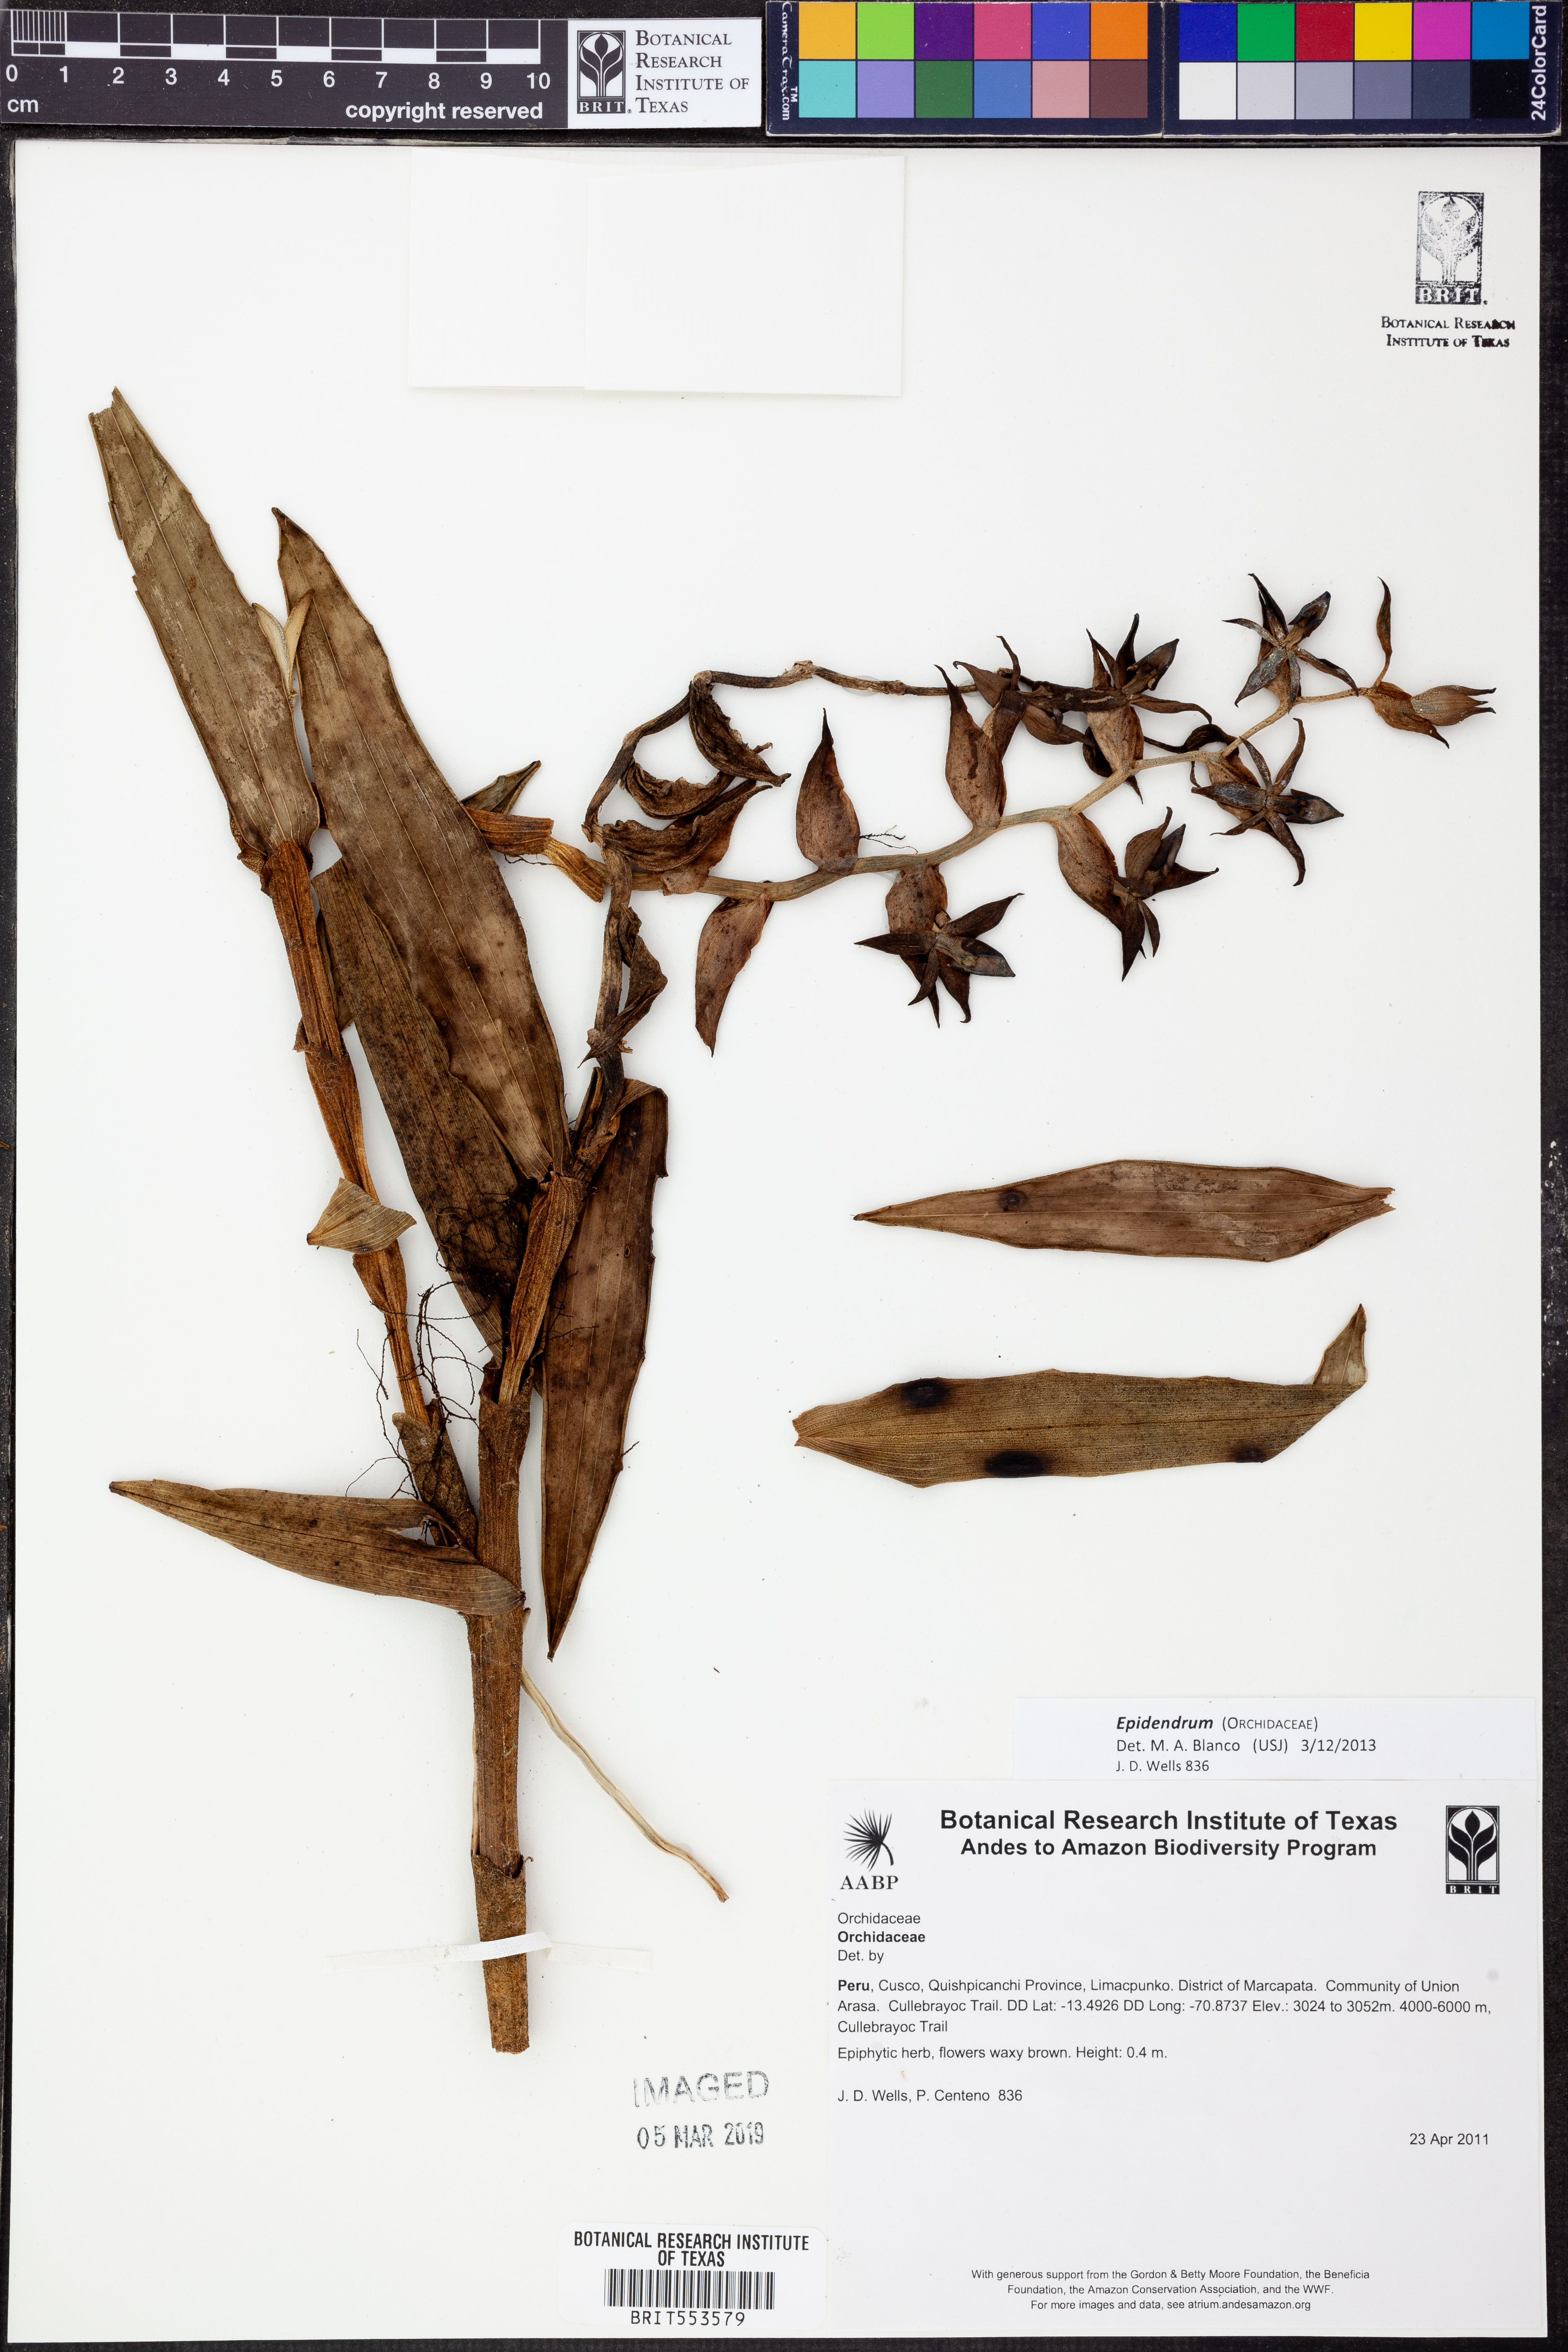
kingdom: Plantae
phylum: Tracheophyta
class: Liliopsida
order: Asparagales
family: Orchidaceae
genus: Epidendrum
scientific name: Epidendrum
